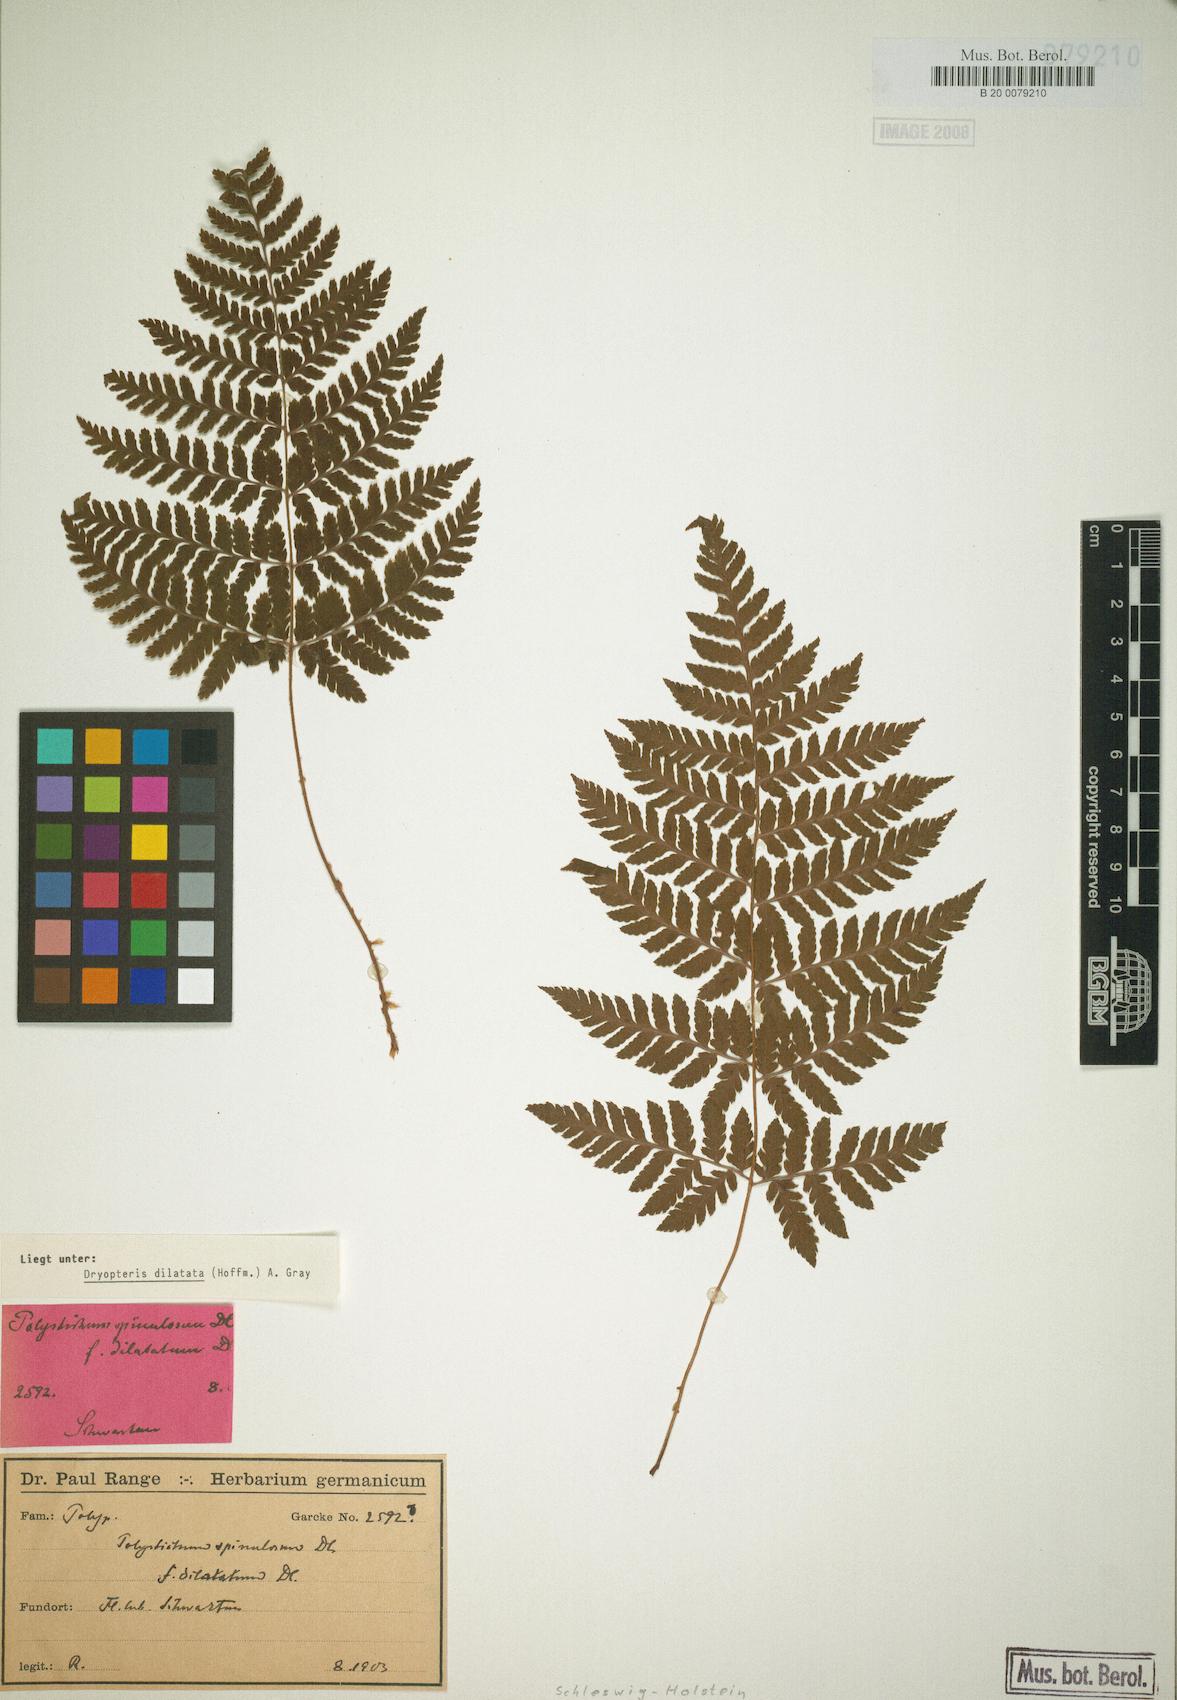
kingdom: Plantae
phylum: Tracheophyta
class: Polypodiopsida
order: Polypodiales
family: Dryopteridaceae
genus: Dryopteris
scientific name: Dryopteris dilatata
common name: Broad buckler-fern
